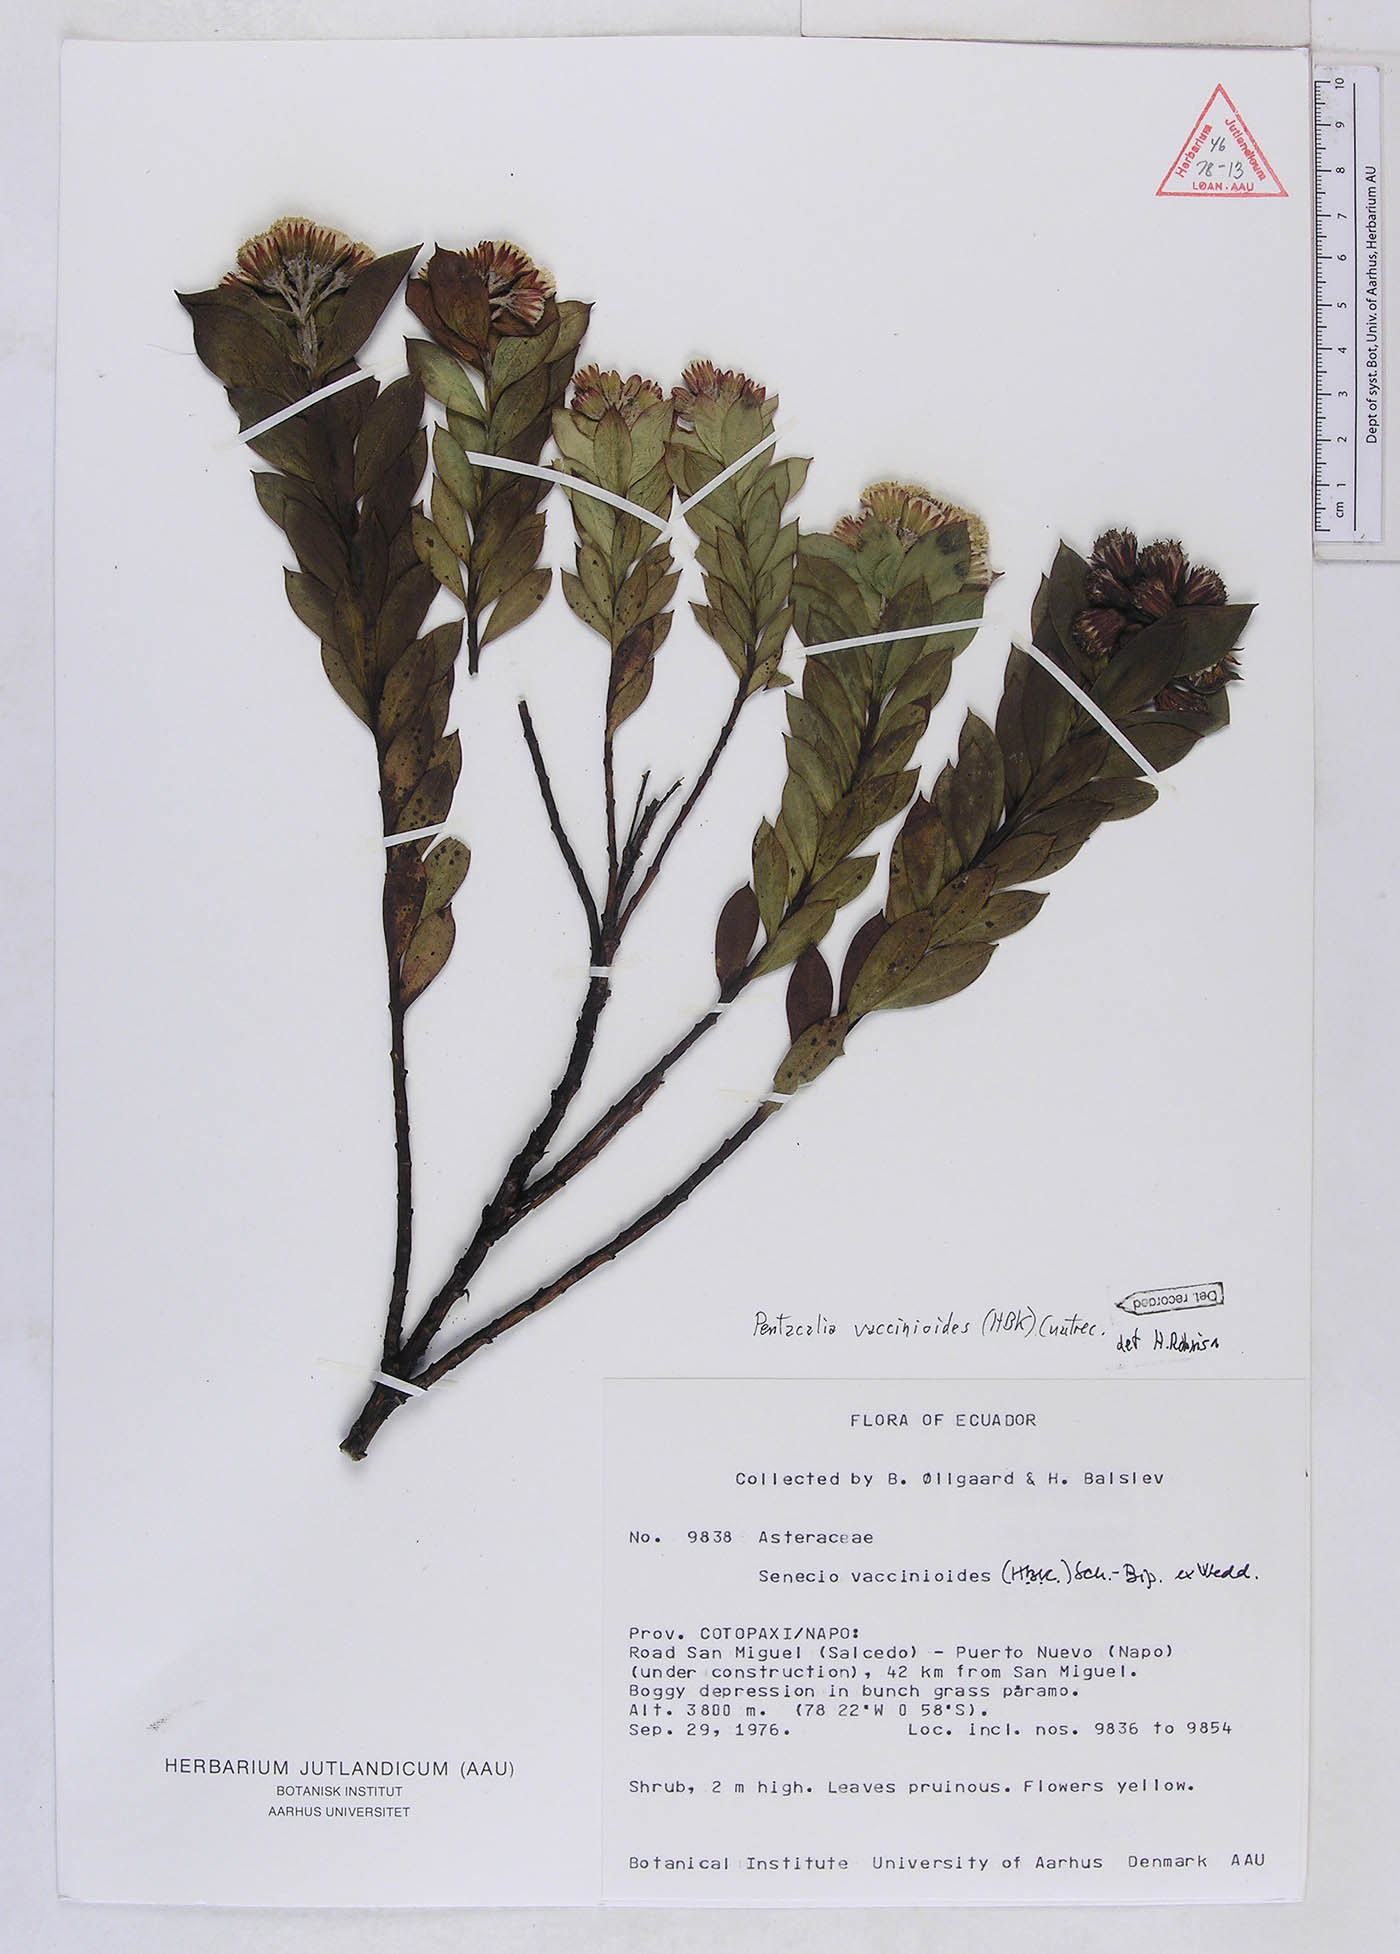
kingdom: Plantae
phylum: Tracheophyta
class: Magnoliopsida
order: Asterales
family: Asteraceae
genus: Monticalia
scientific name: Monticalia vaccinioides
